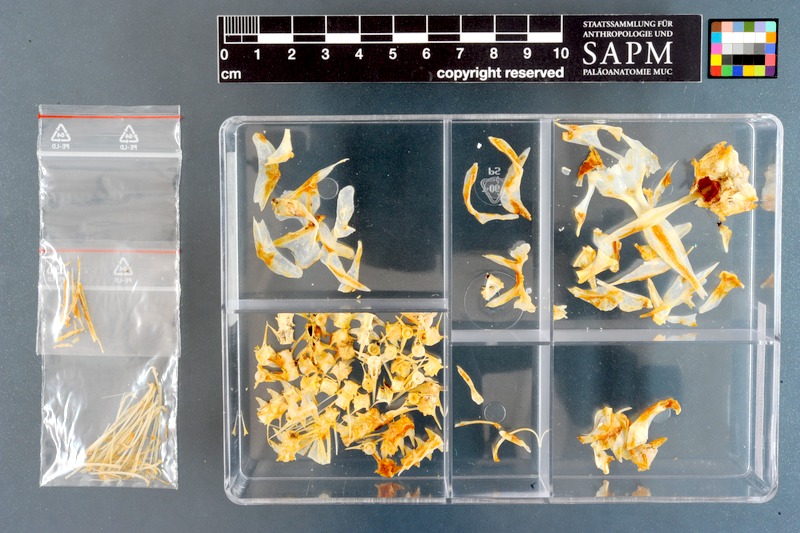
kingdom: Animalia
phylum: Chordata
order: Gonorynchiformes
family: Gonorynchidae
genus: Gonorynchus
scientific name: Gonorynchus gonorynchus
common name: Beaked salmon
